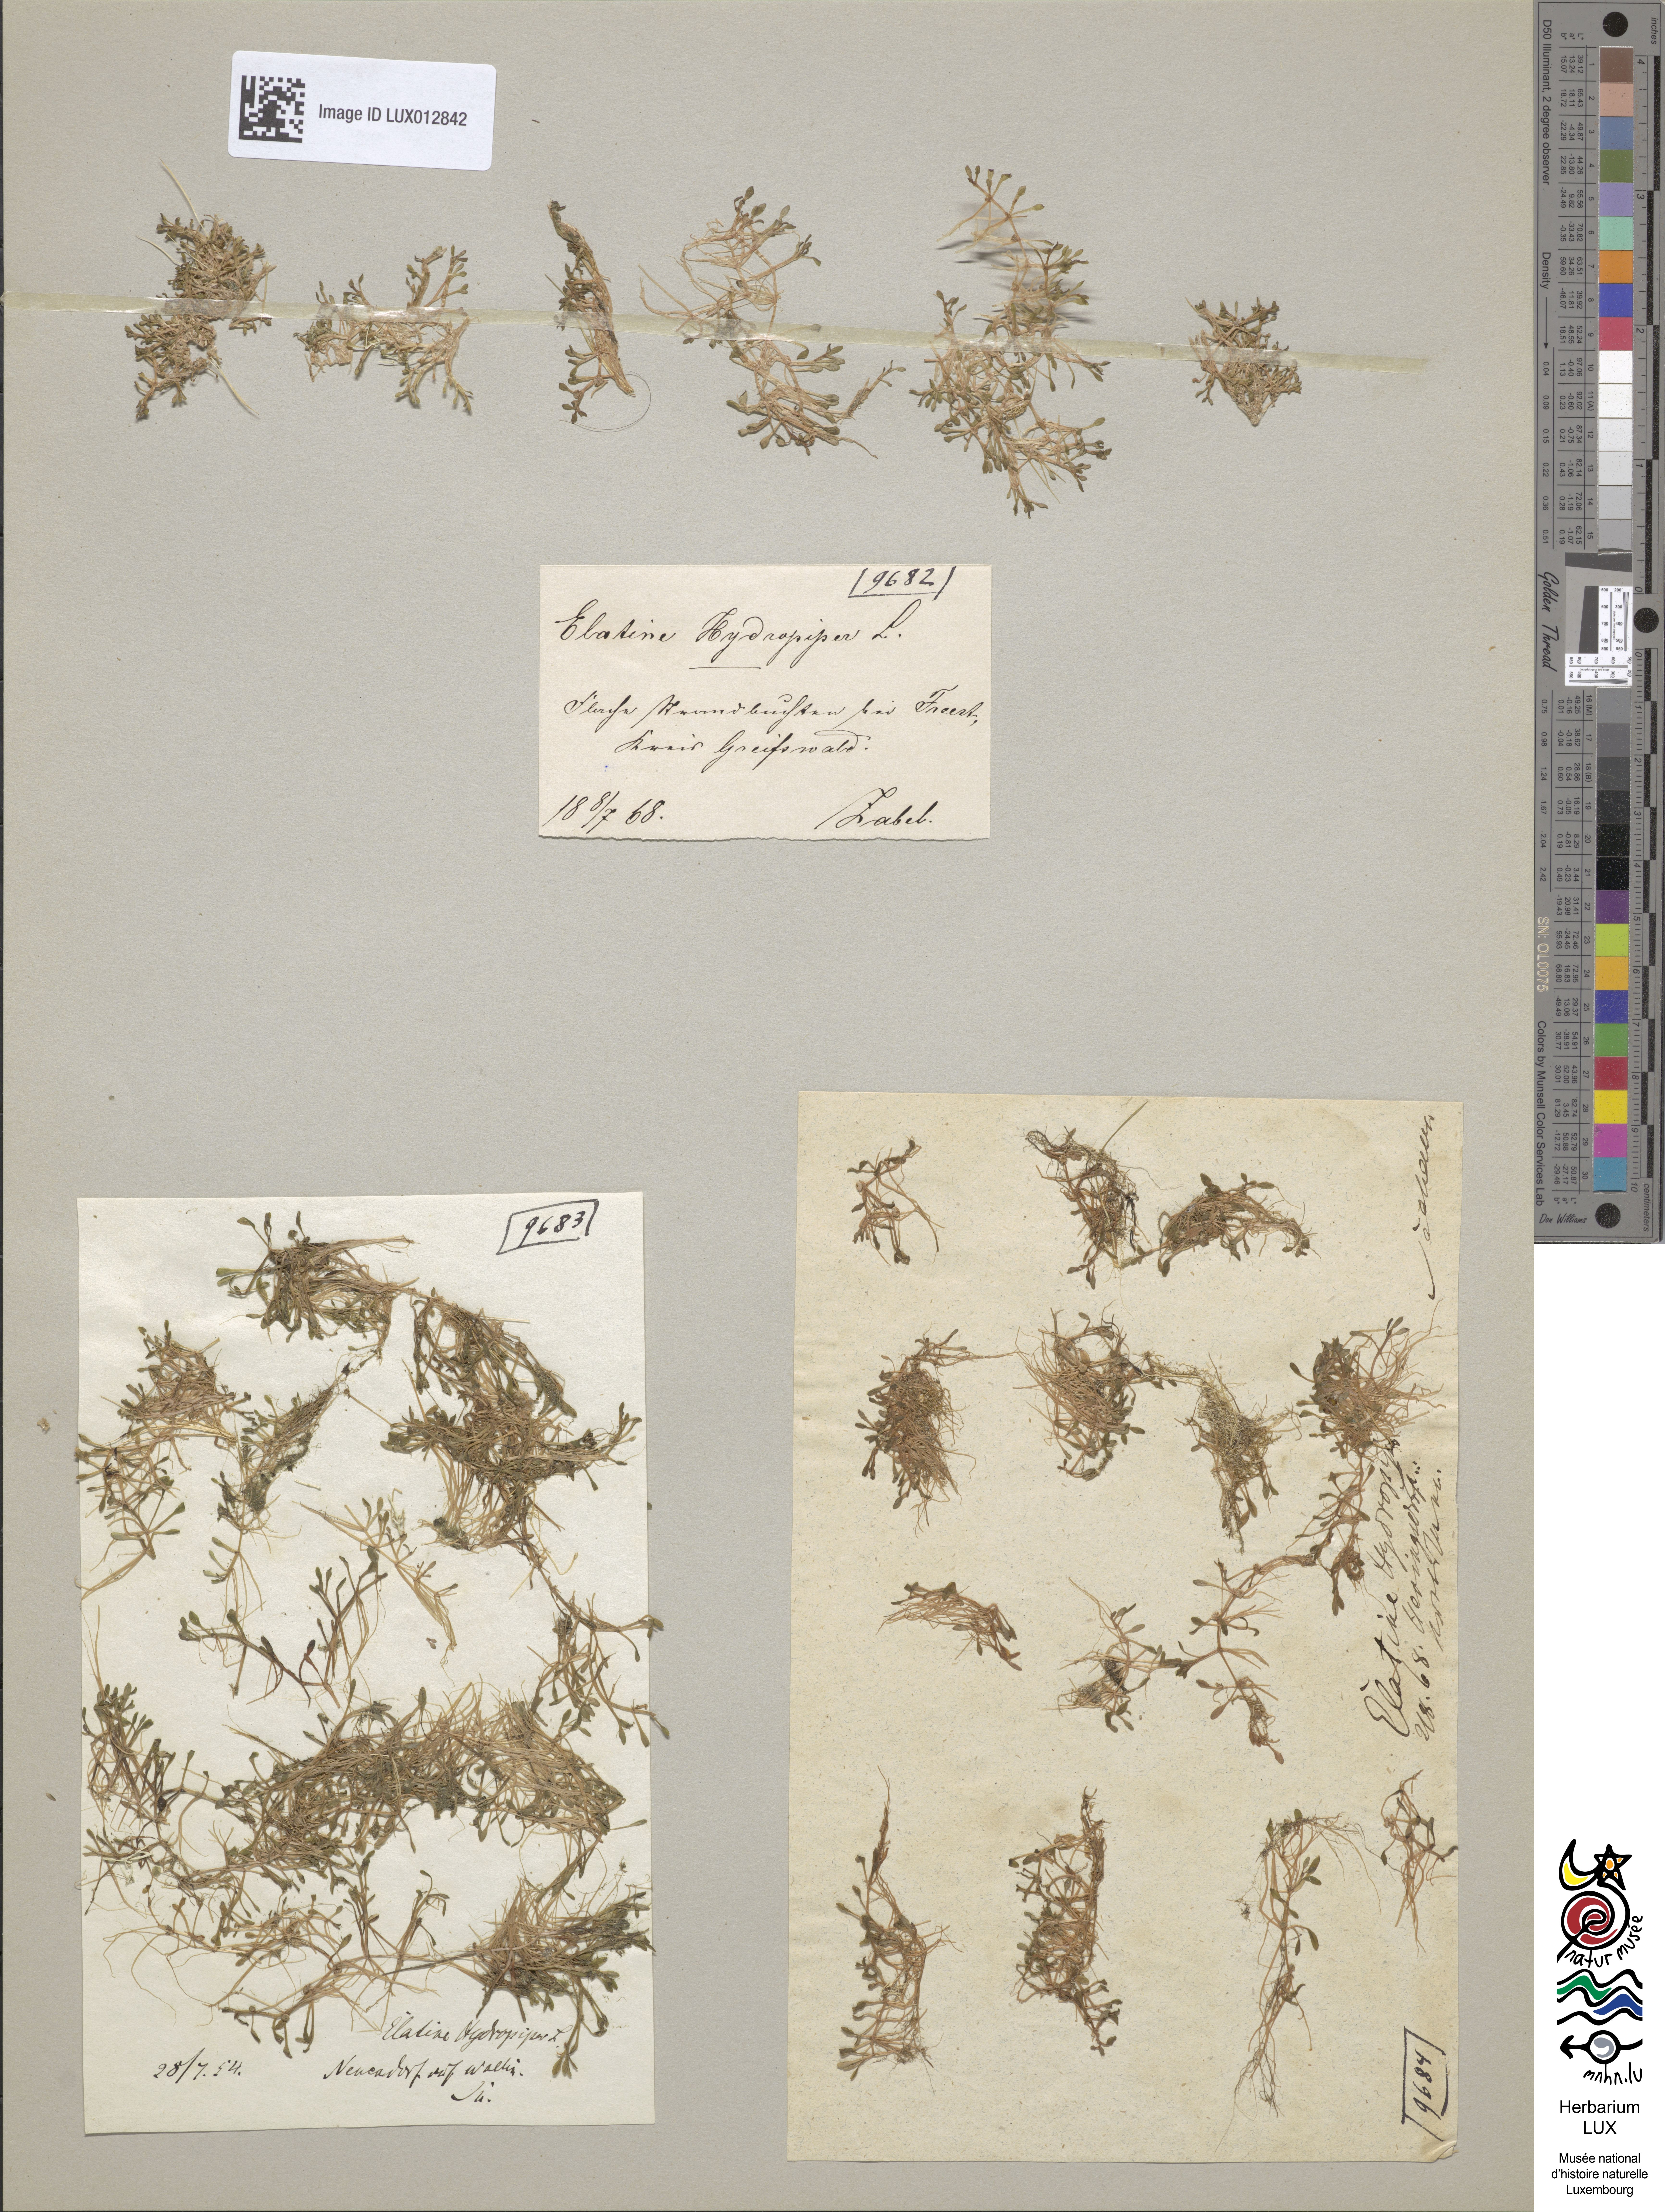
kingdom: Plantae
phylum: Tracheophyta
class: Magnoliopsida
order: Malpighiales
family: Elatinaceae
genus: Elatine
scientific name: Elatine hydropiper
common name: Eight-stamened waterwort
